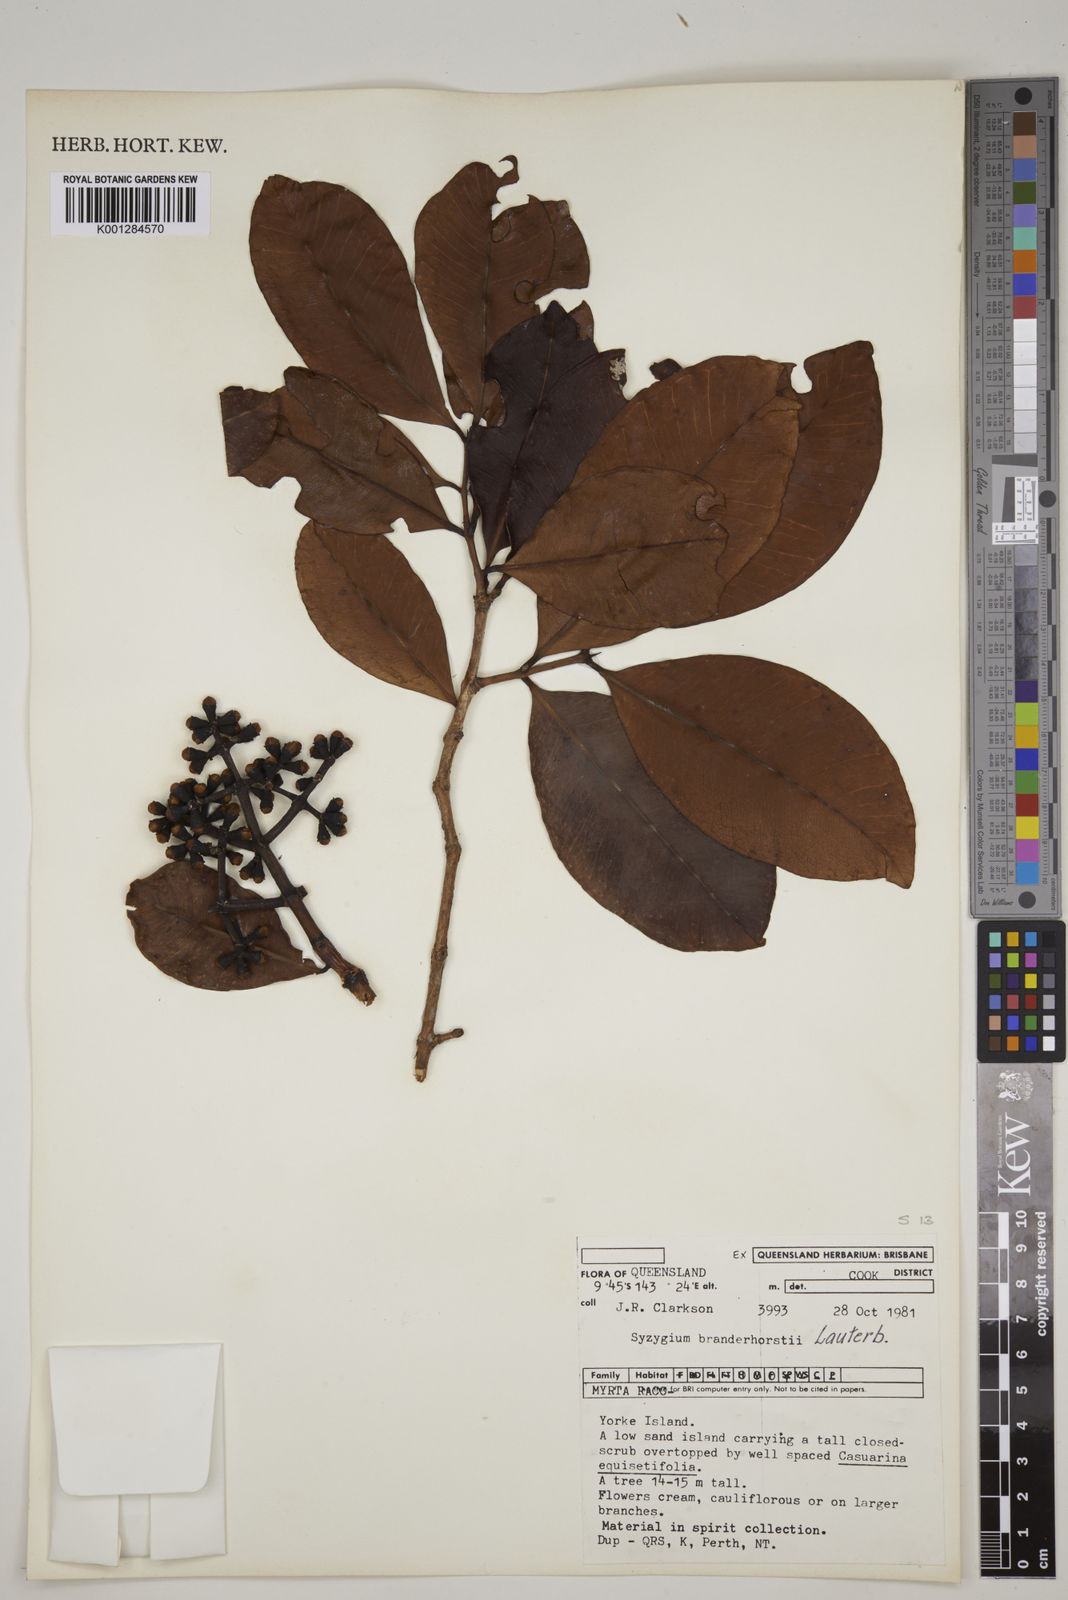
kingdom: Plantae
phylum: Tracheophyta
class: Magnoliopsida
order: Myrtales
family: Myrtaceae
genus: Syzygium
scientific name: Syzygium branderhorstii
